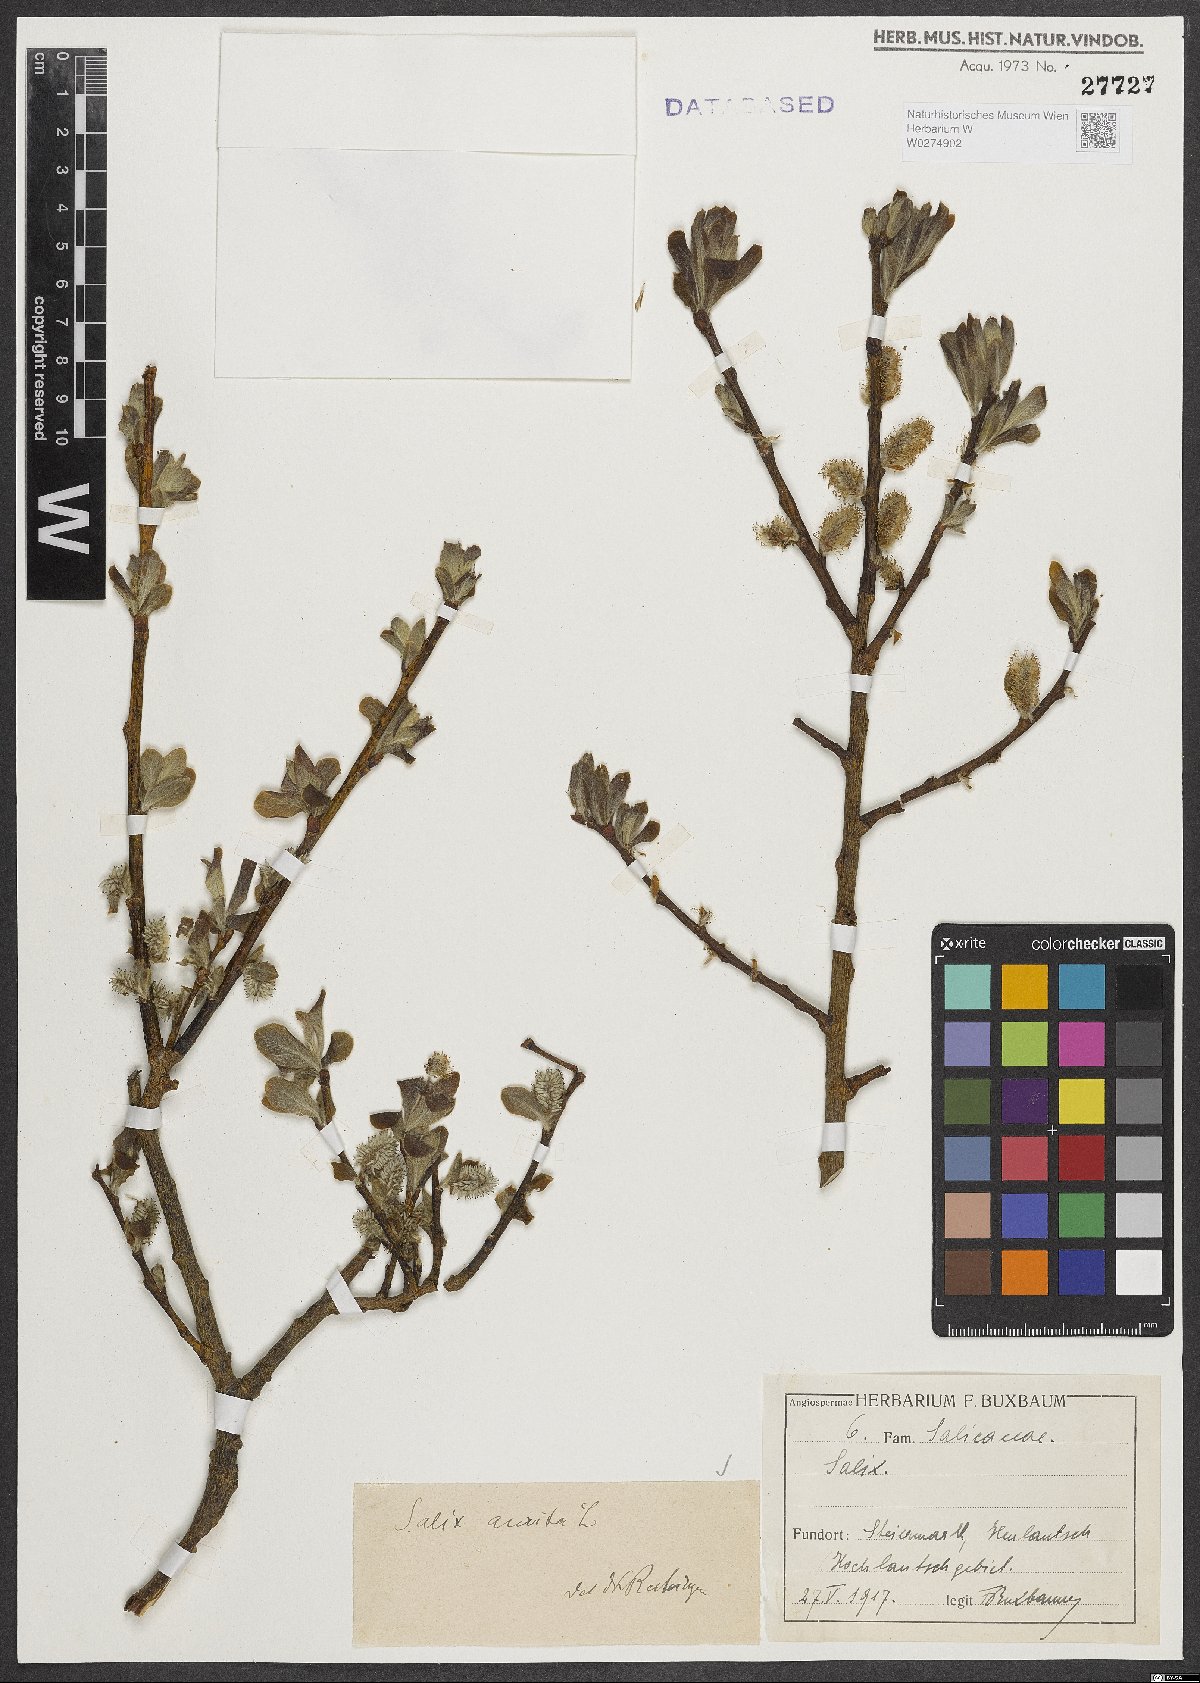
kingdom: Plantae
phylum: Tracheophyta
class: Magnoliopsida
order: Malpighiales
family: Salicaceae
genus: Salix
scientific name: Salix aurita
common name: Eared willow
